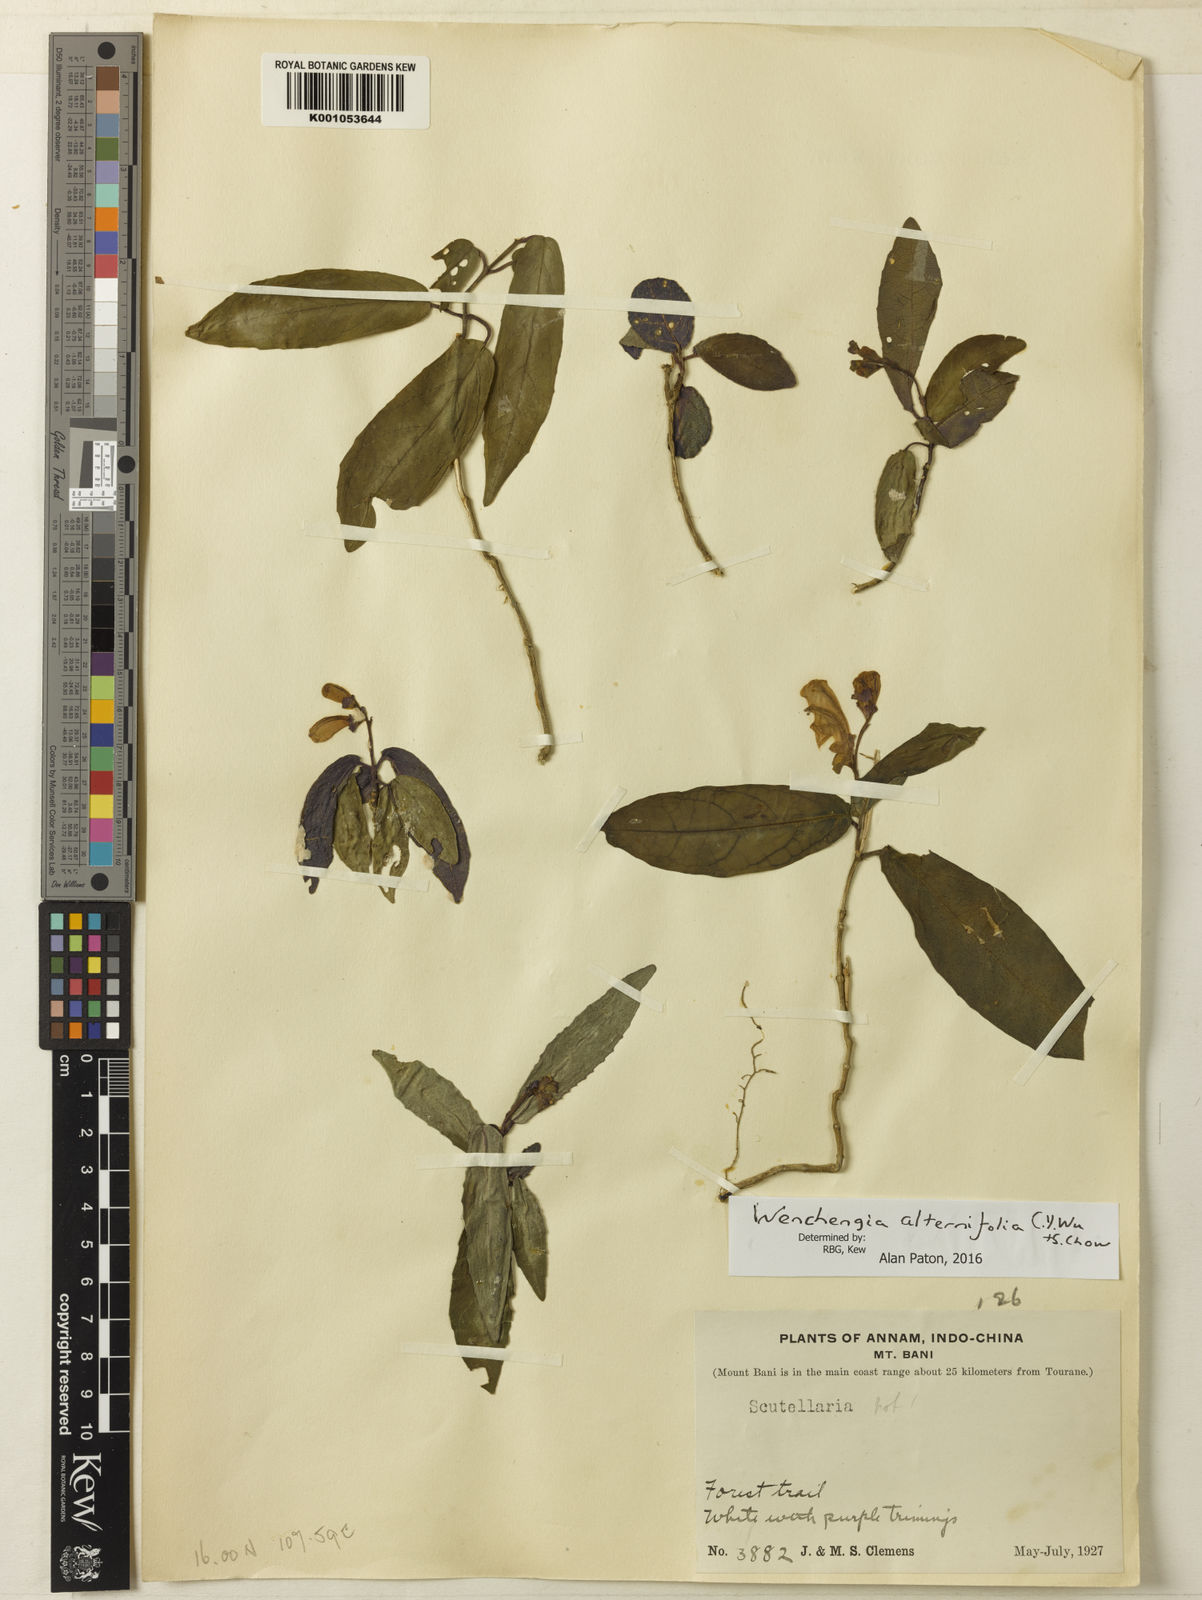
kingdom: Plantae
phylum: Tracheophyta
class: Magnoliopsida
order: Lamiales
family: Lamiaceae
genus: Wenchengia
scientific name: Wenchengia alternifolia
